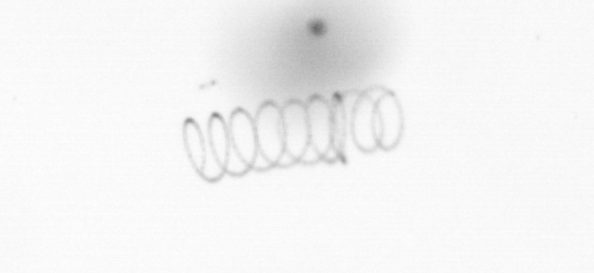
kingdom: Chromista
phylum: Ochrophyta
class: Bacillariophyceae
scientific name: Bacillariophyceae
